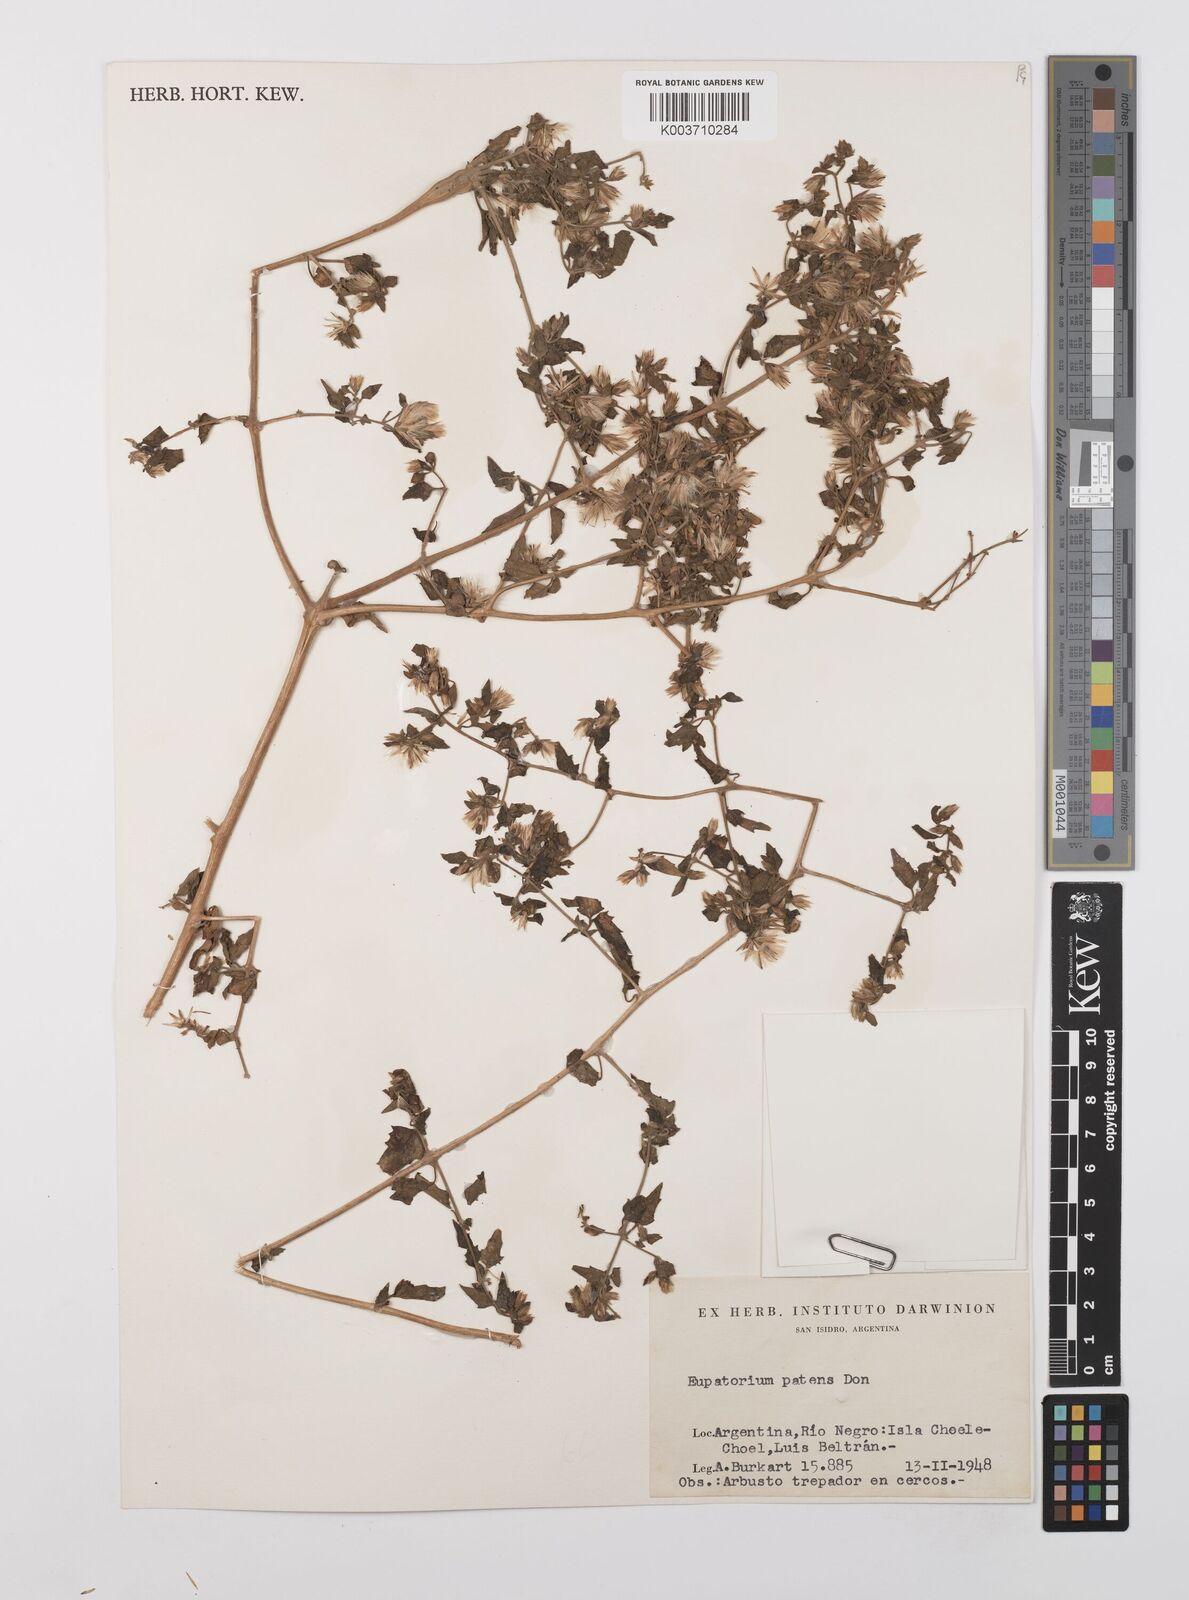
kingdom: Plantae
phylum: Tracheophyta
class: Magnoliopsida
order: Asterales
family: Asteraceae
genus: Austrobrickellia
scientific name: Austrobrickellia patens
